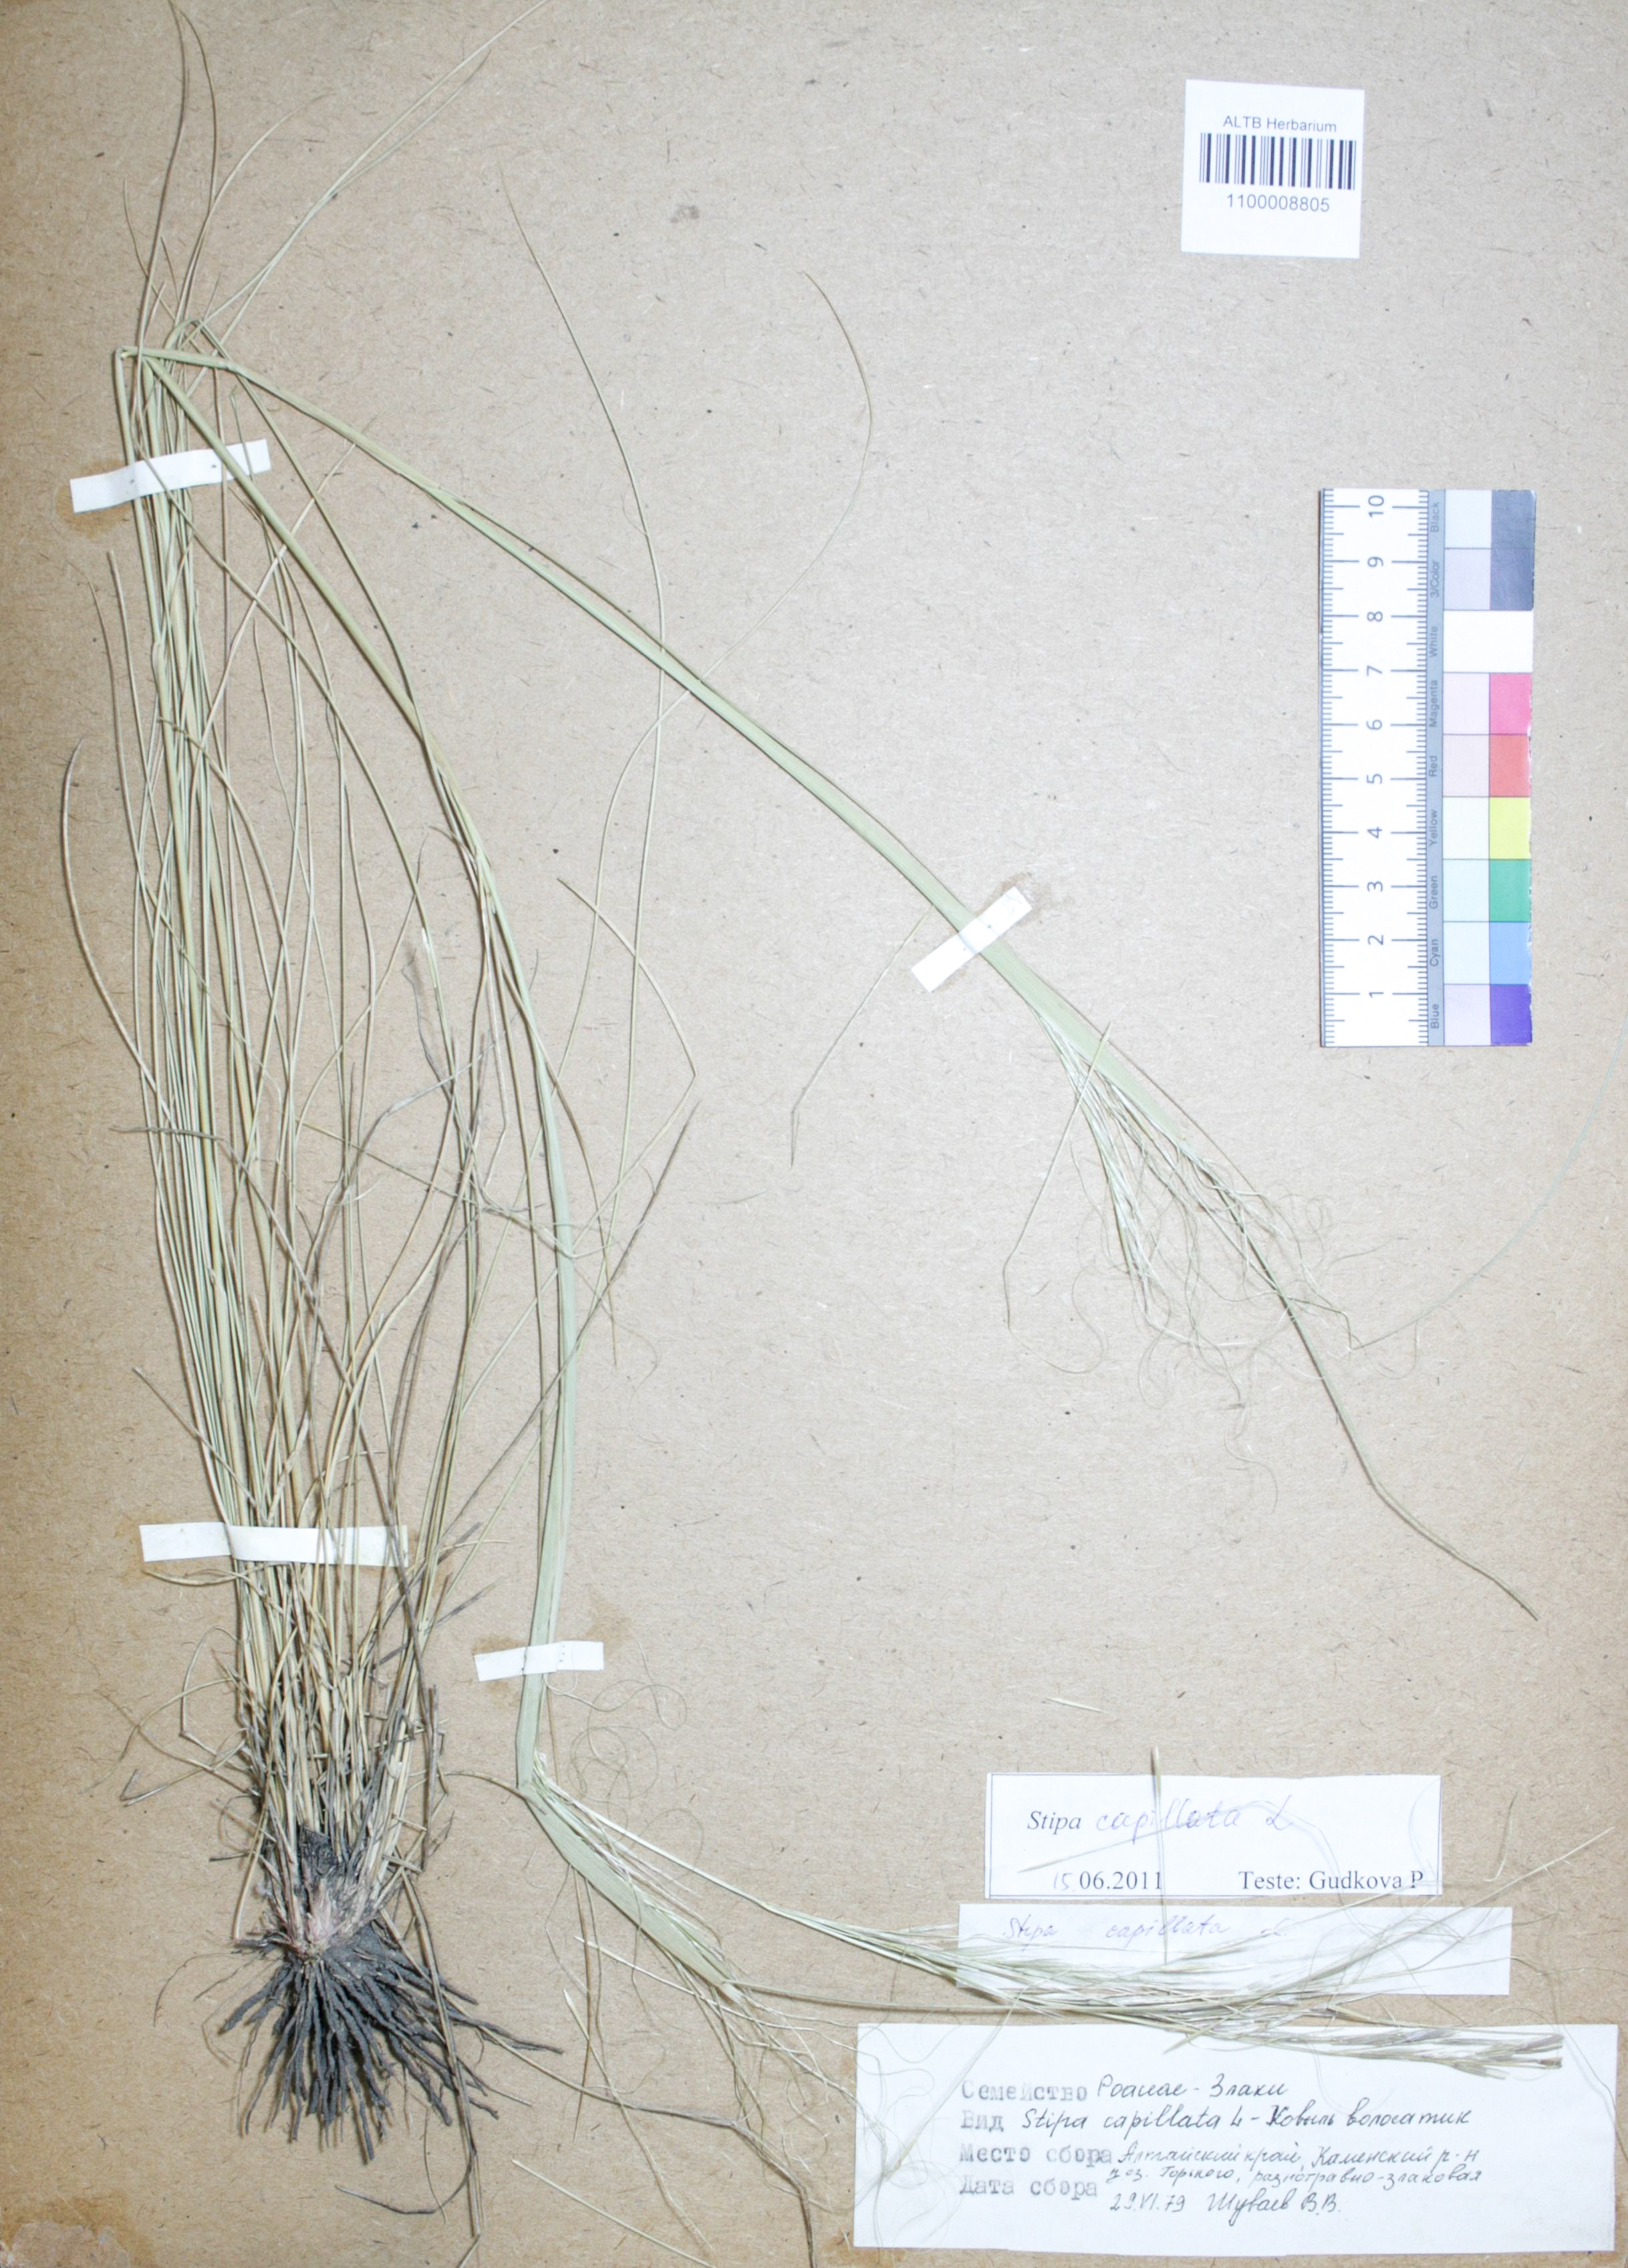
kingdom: Plantae
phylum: Tracheophyta
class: Liliopsida
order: Poales
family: Poaceae
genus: Stipa
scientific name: Stipa capillata
